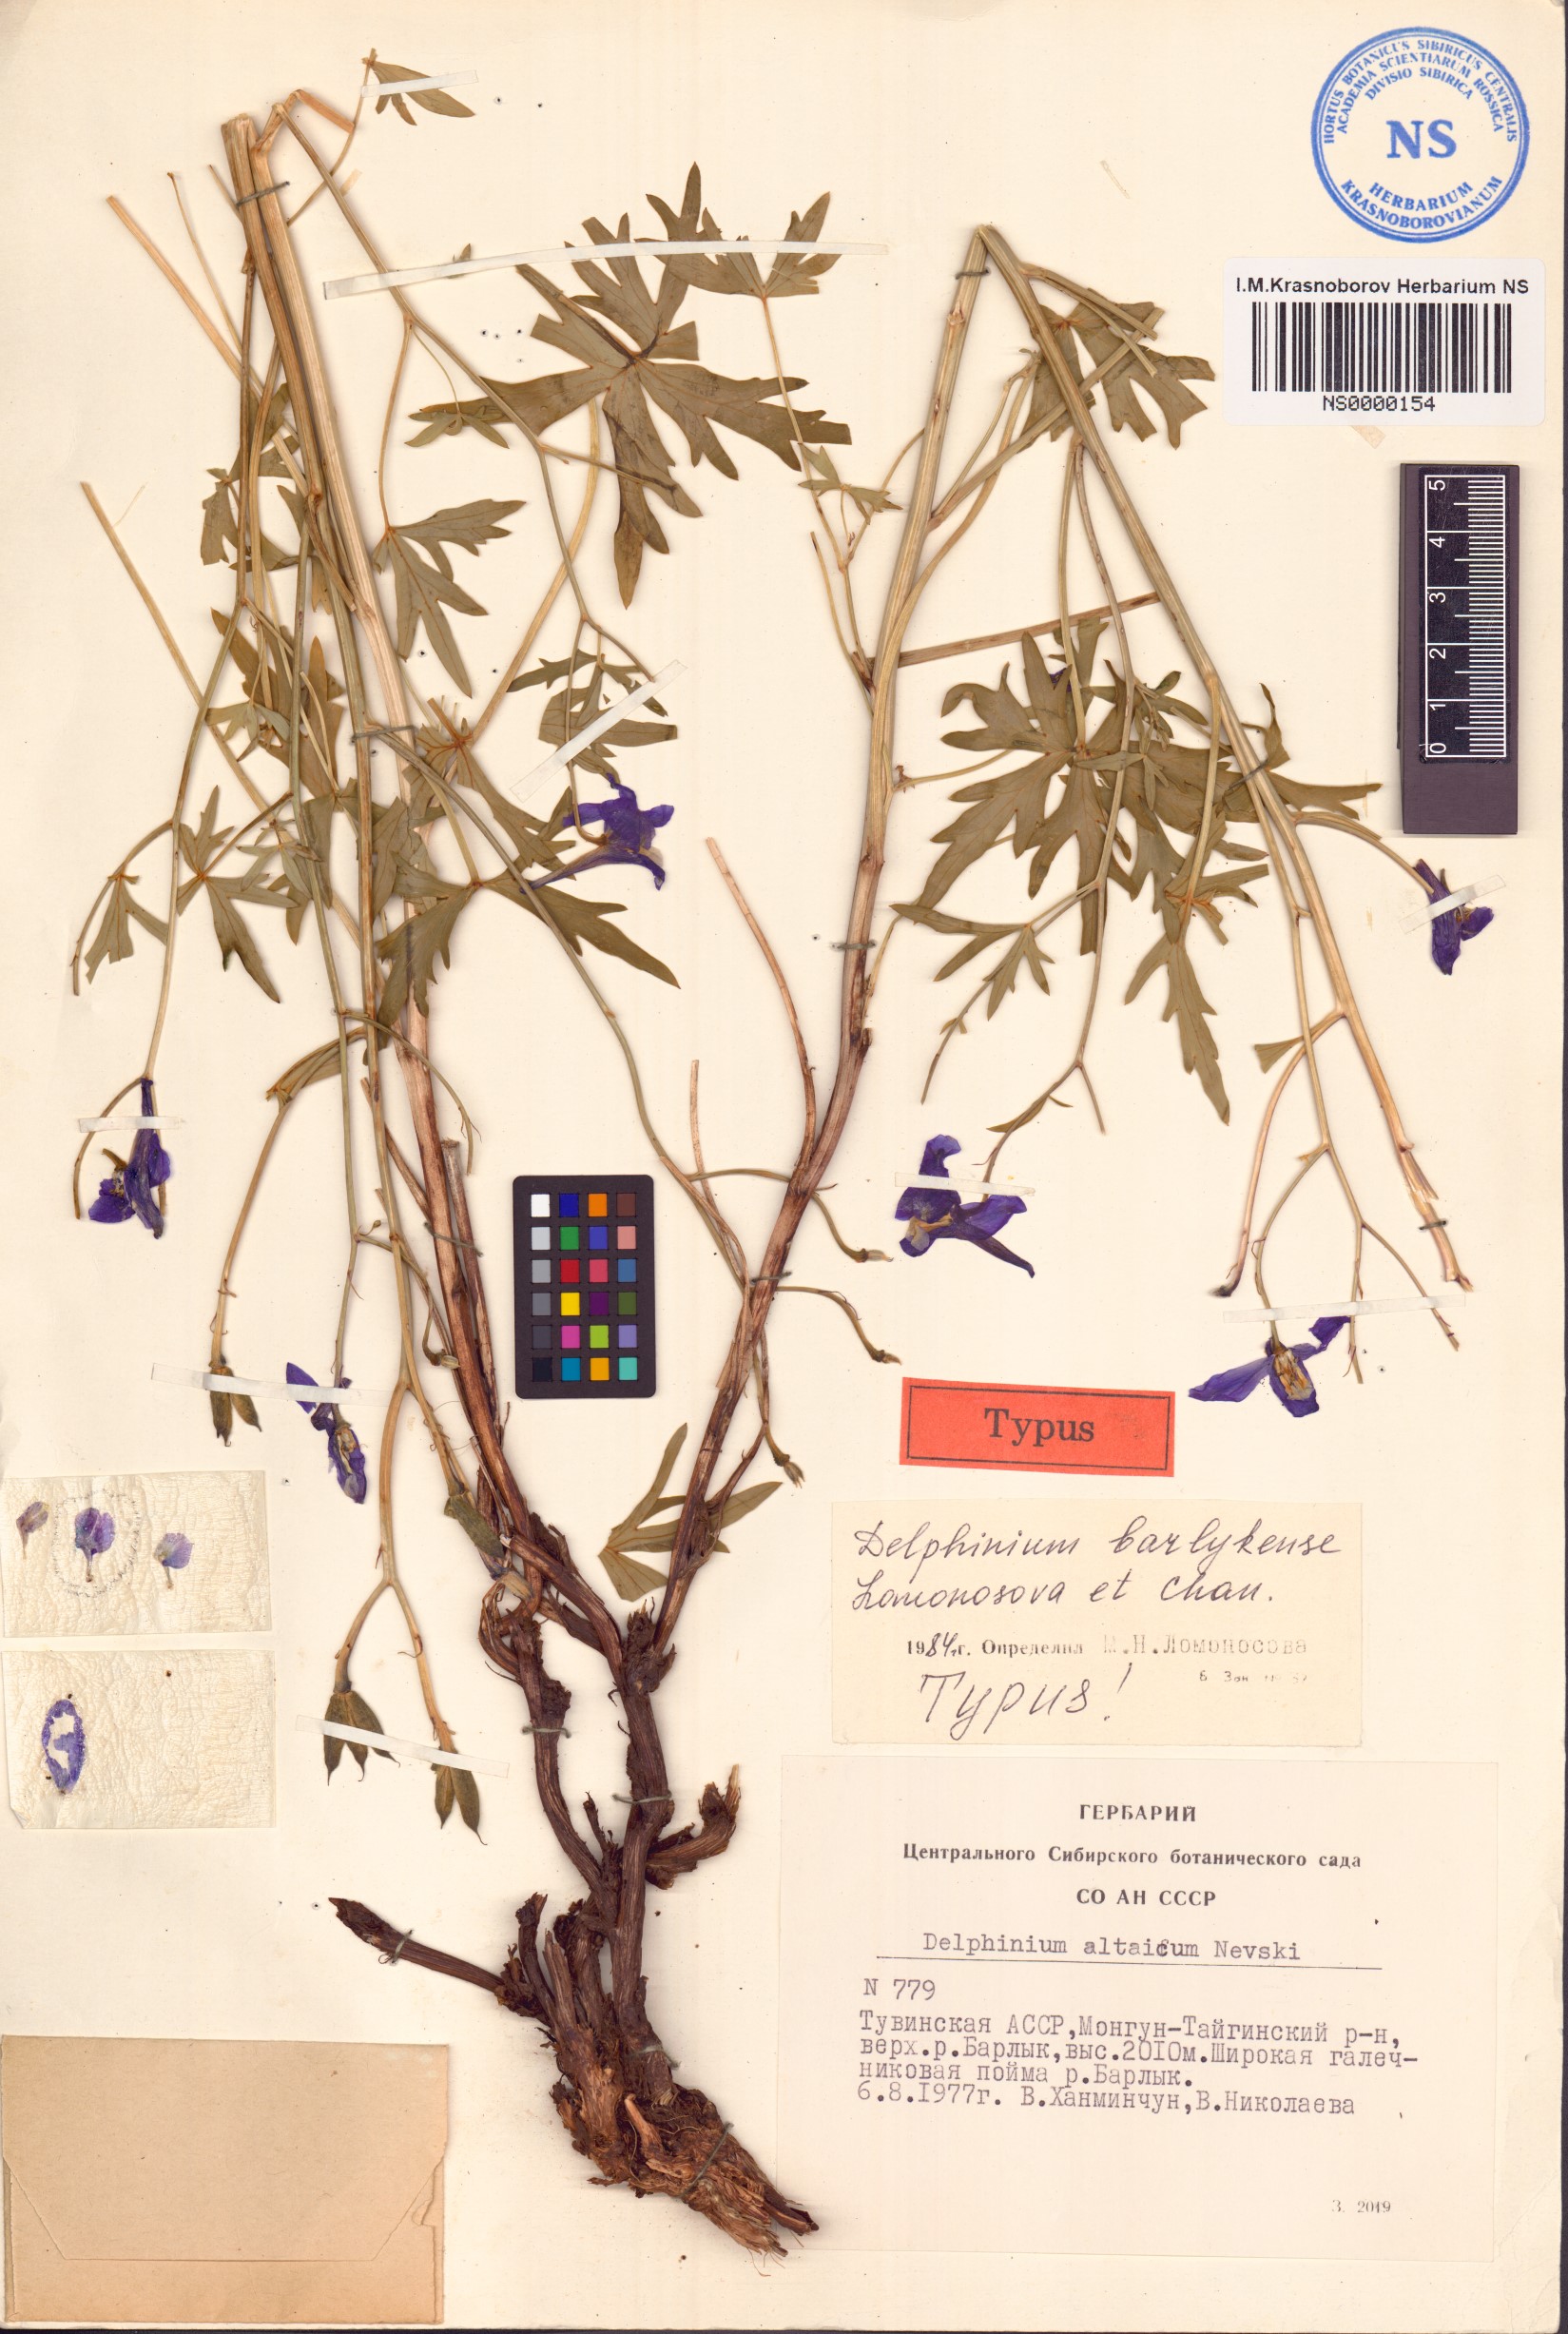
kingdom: Plantae
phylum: Tracheophyta
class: Magnoliopsida
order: Ranunculales
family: Ranunculaceae
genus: Delphinium
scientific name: Delphinium barlykense
